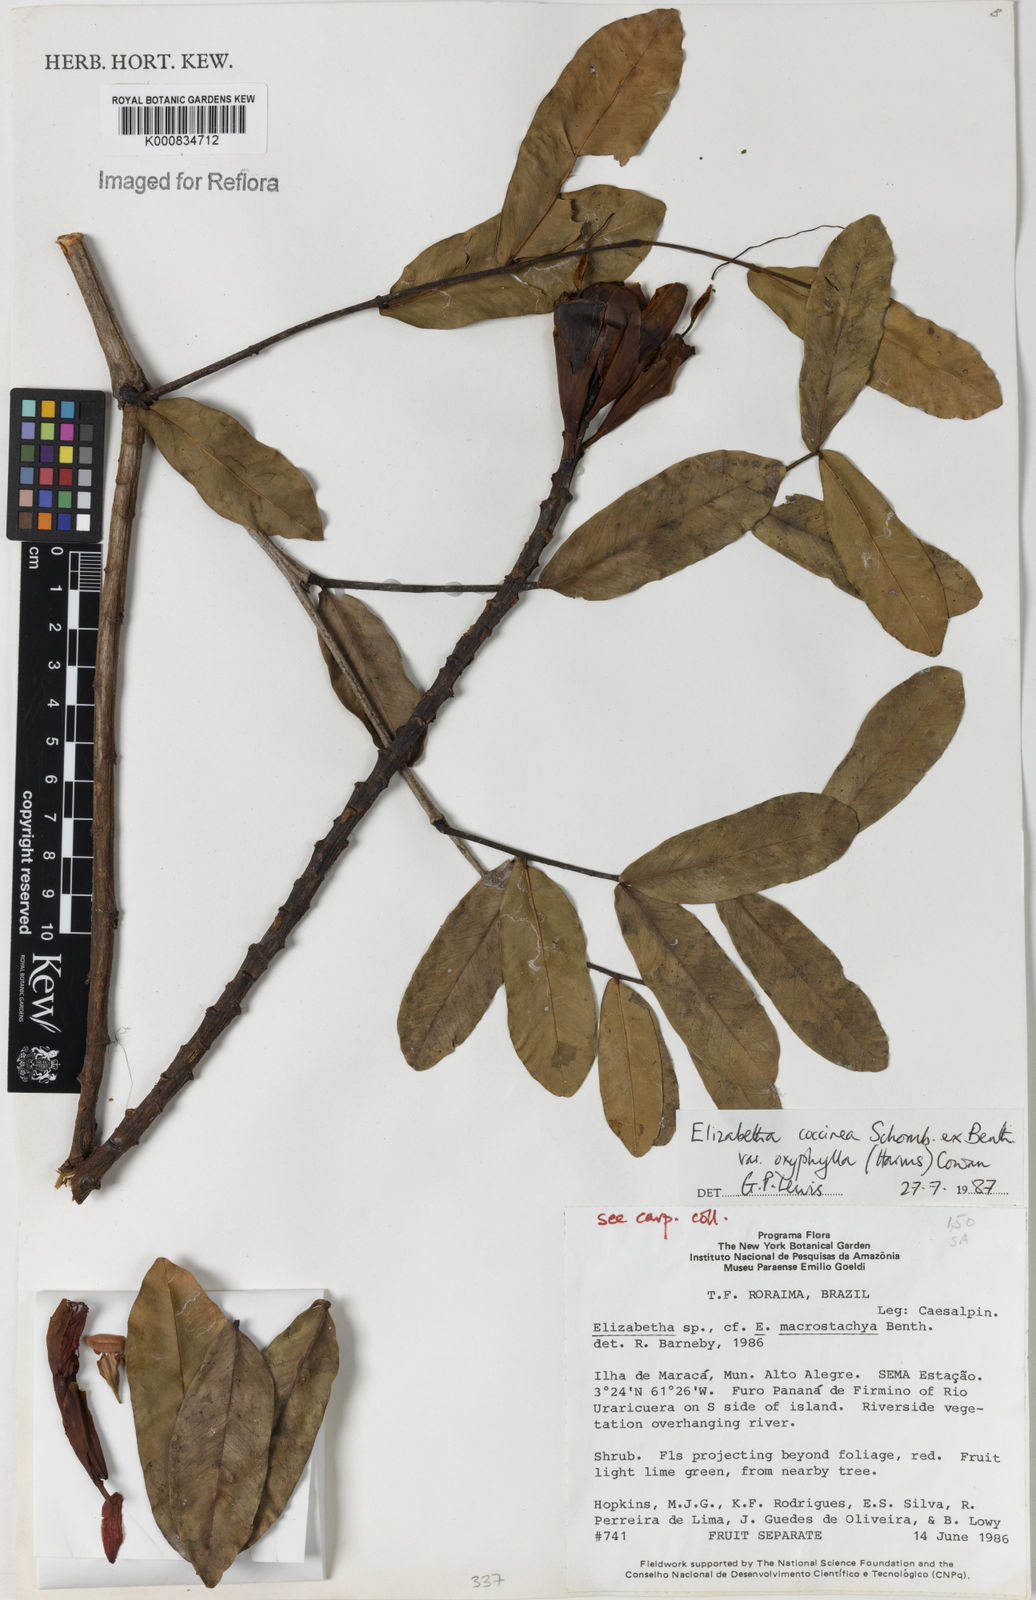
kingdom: Plantae
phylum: Tracheophyta
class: Magnoliopsida
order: Fabales
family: Fabaceae
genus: Paloue
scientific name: Paloue coccinea
